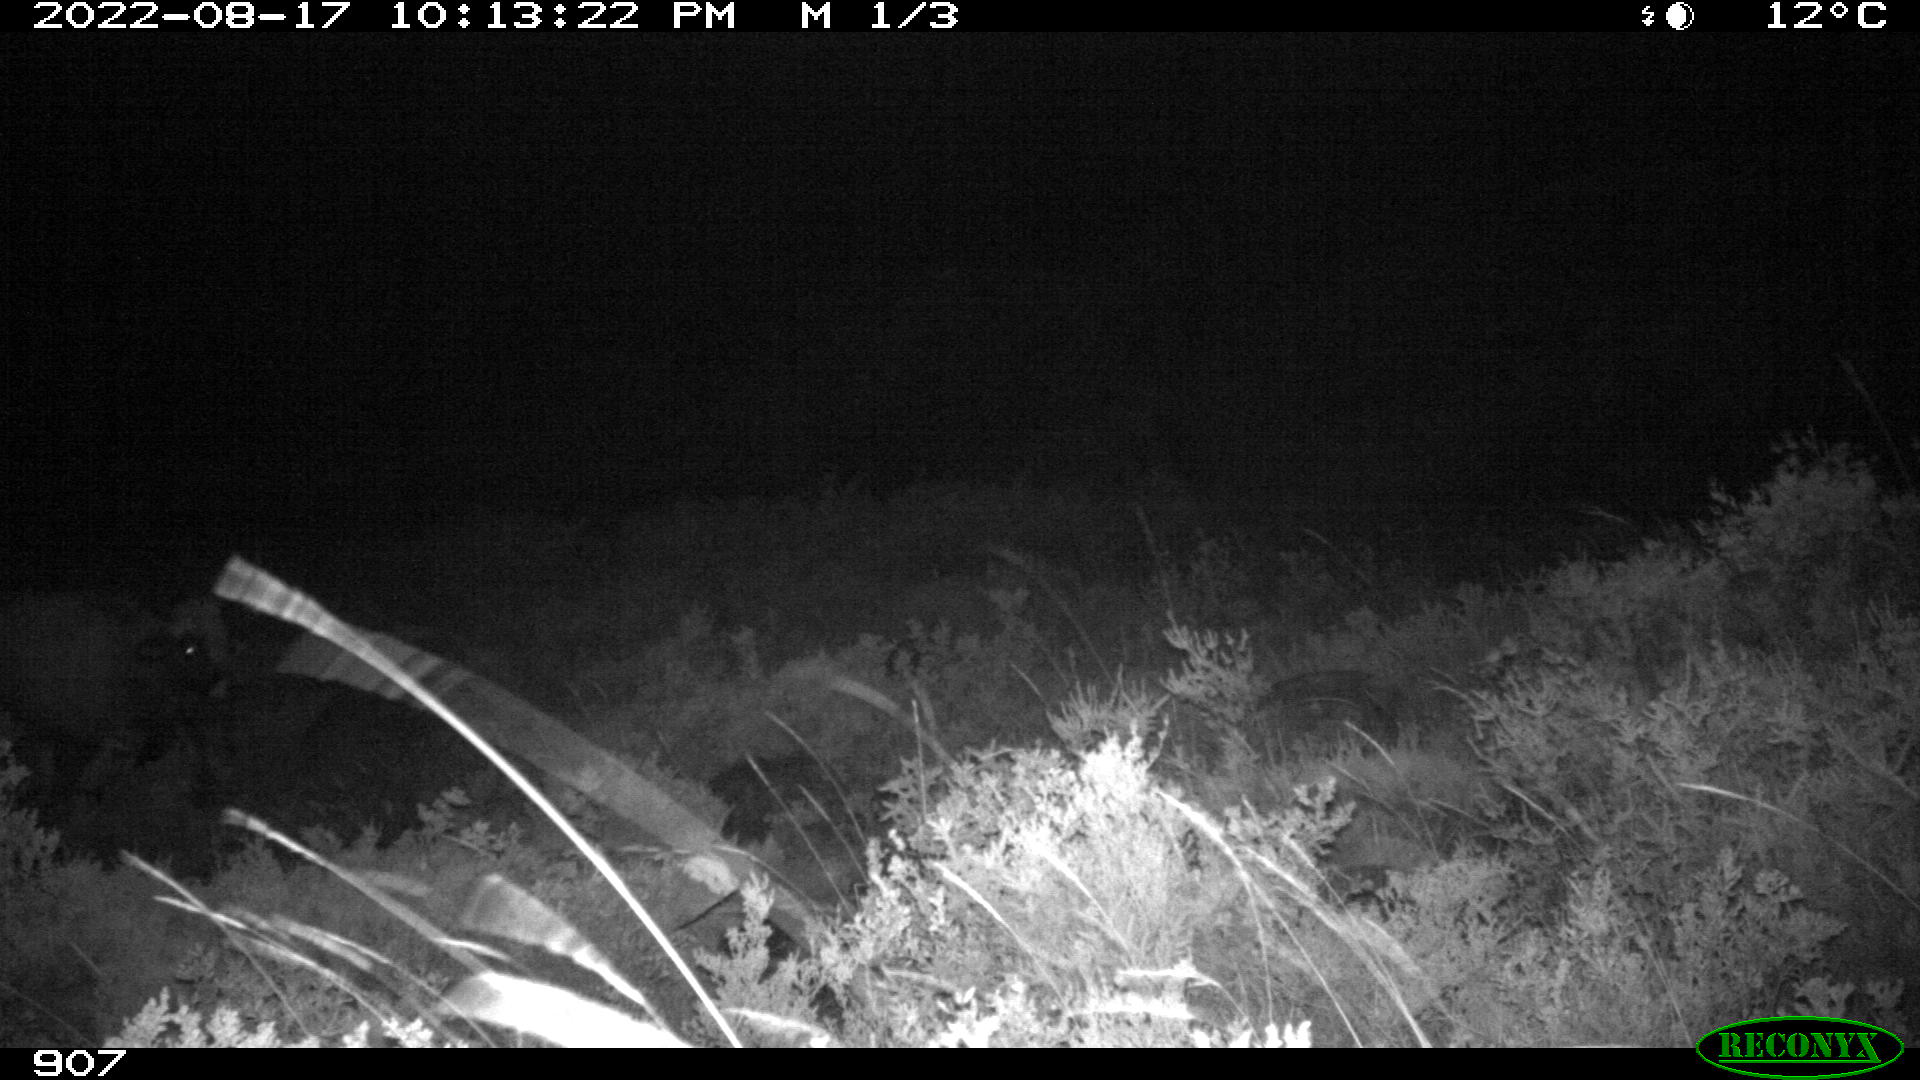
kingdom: Animalia
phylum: Chordata
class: Mammalia
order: Artiodactyla
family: Bovidae
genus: Bos
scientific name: Bos taurus
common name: Domesticated cattle
